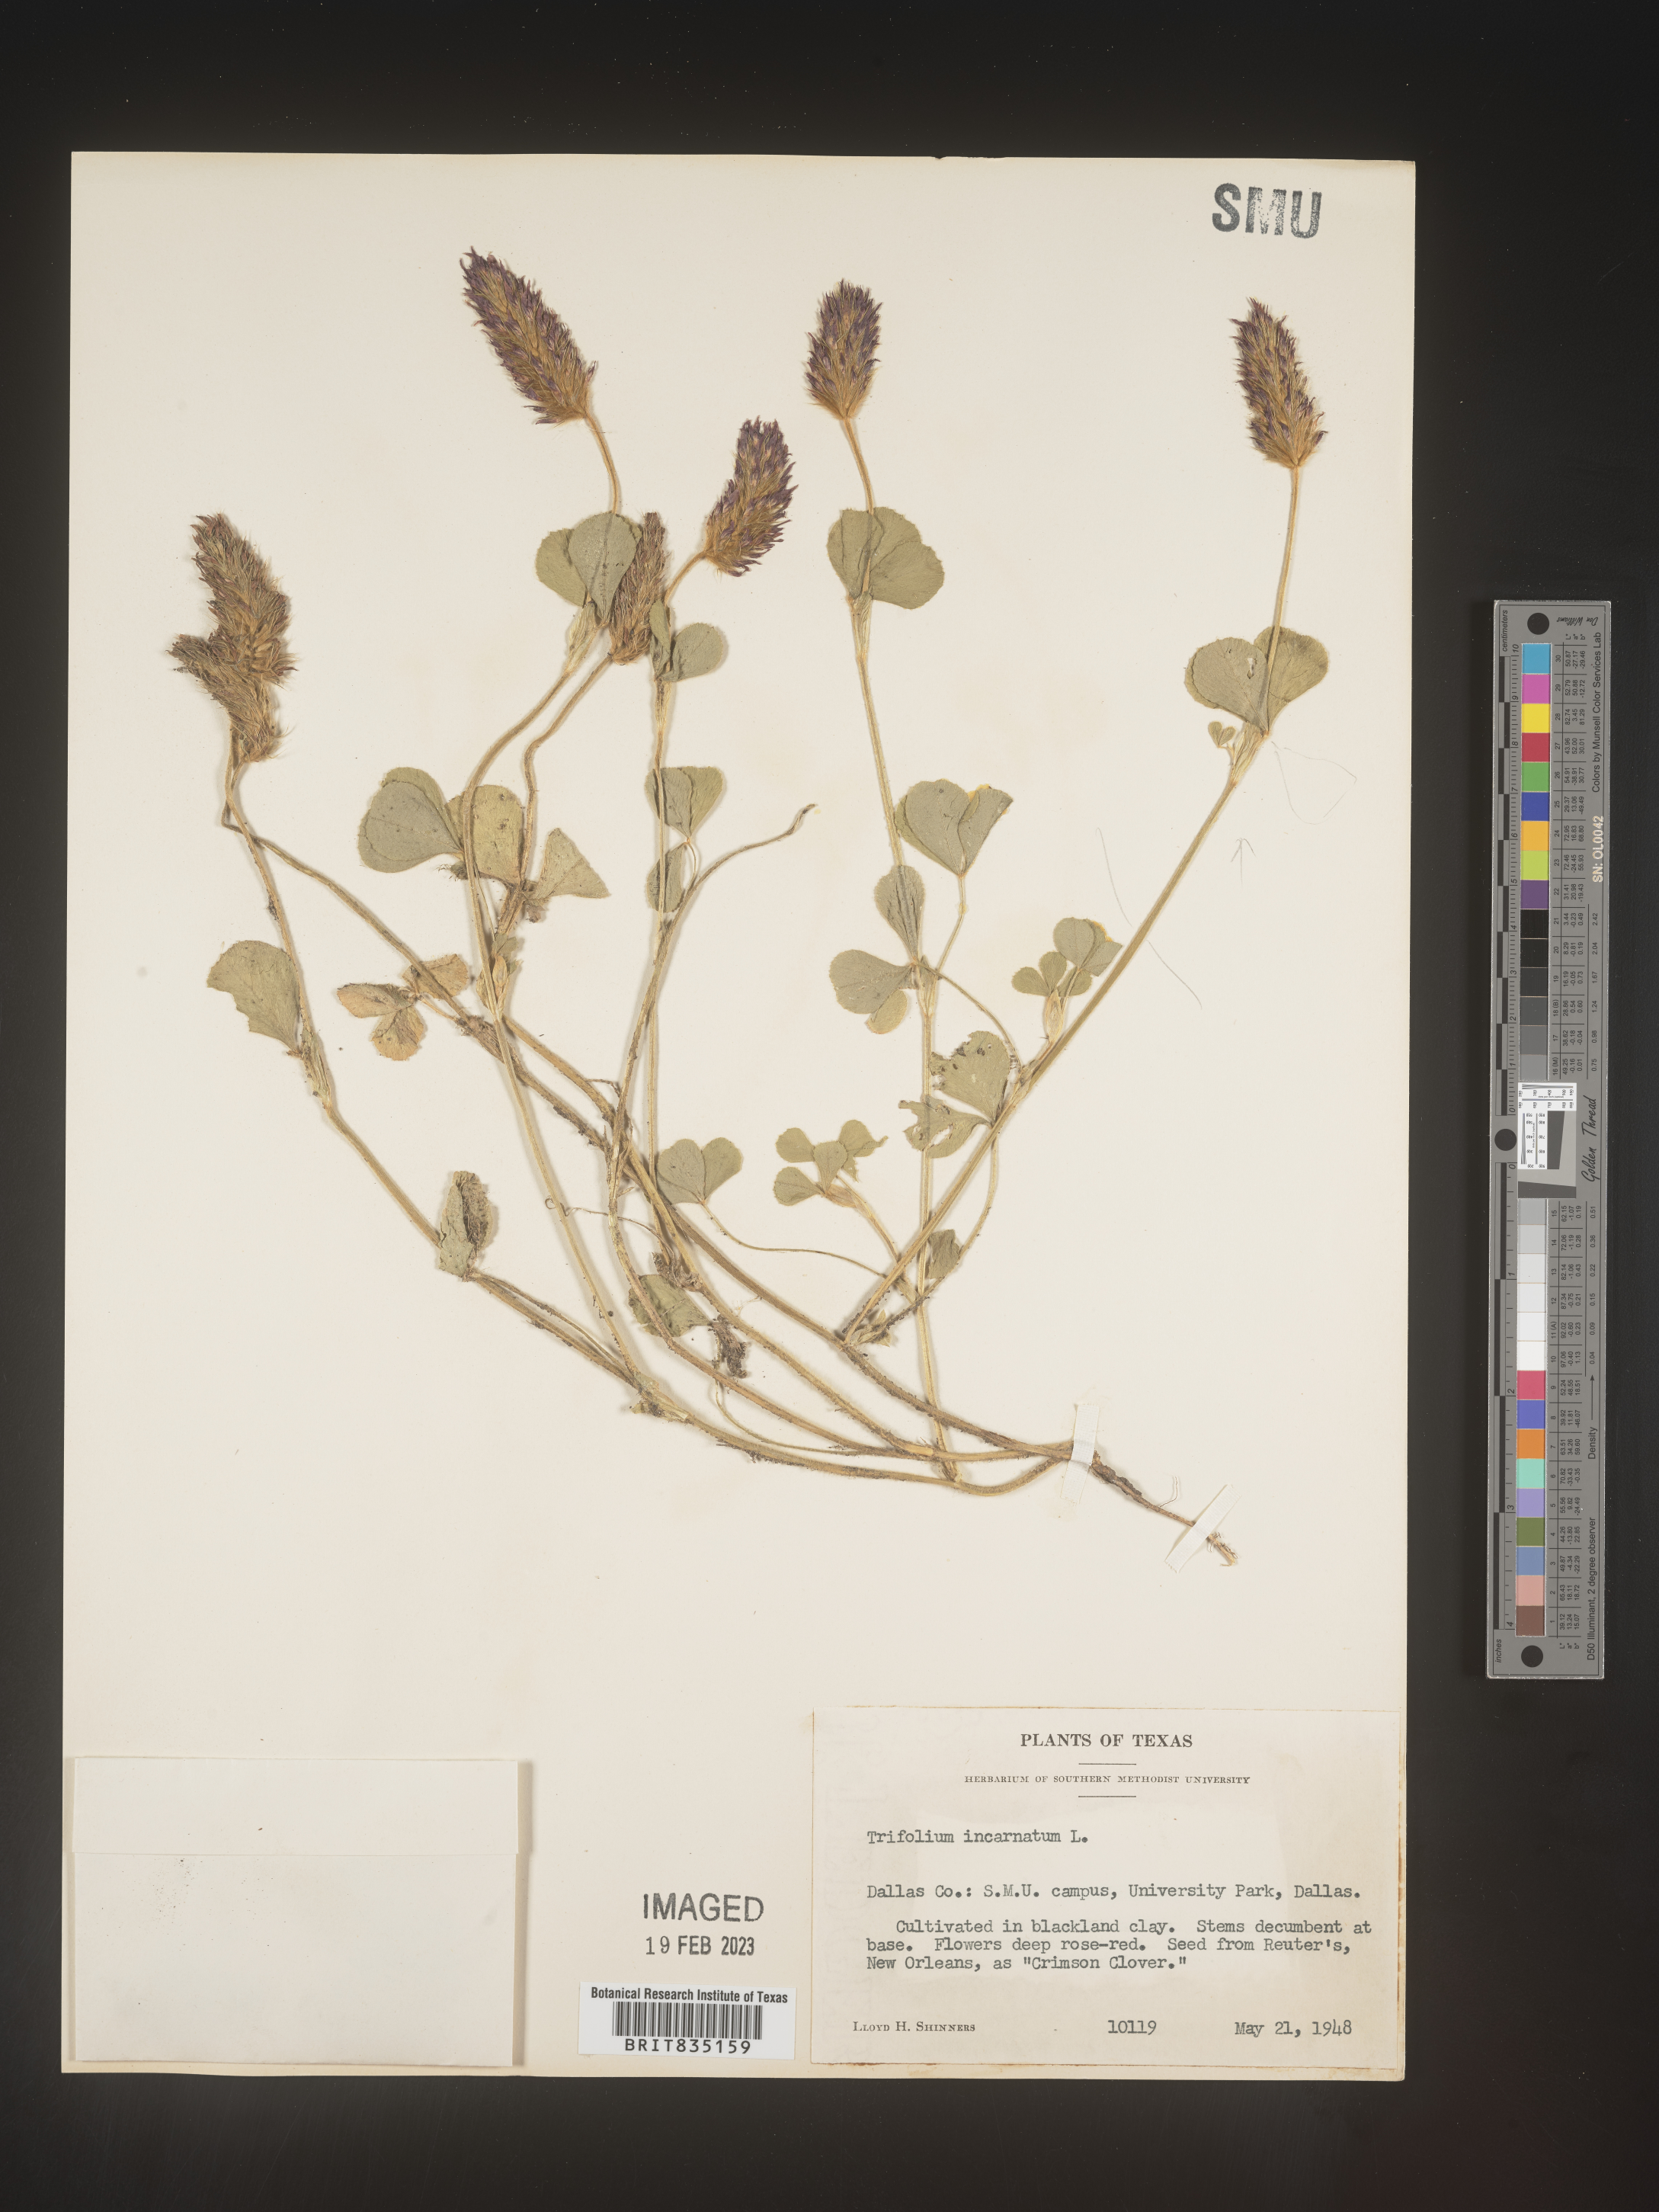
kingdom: Plantae
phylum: Tracheophyta
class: Magnoliopsida
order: Fabales
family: Fabaceae
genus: Trigonella
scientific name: Trigonella
